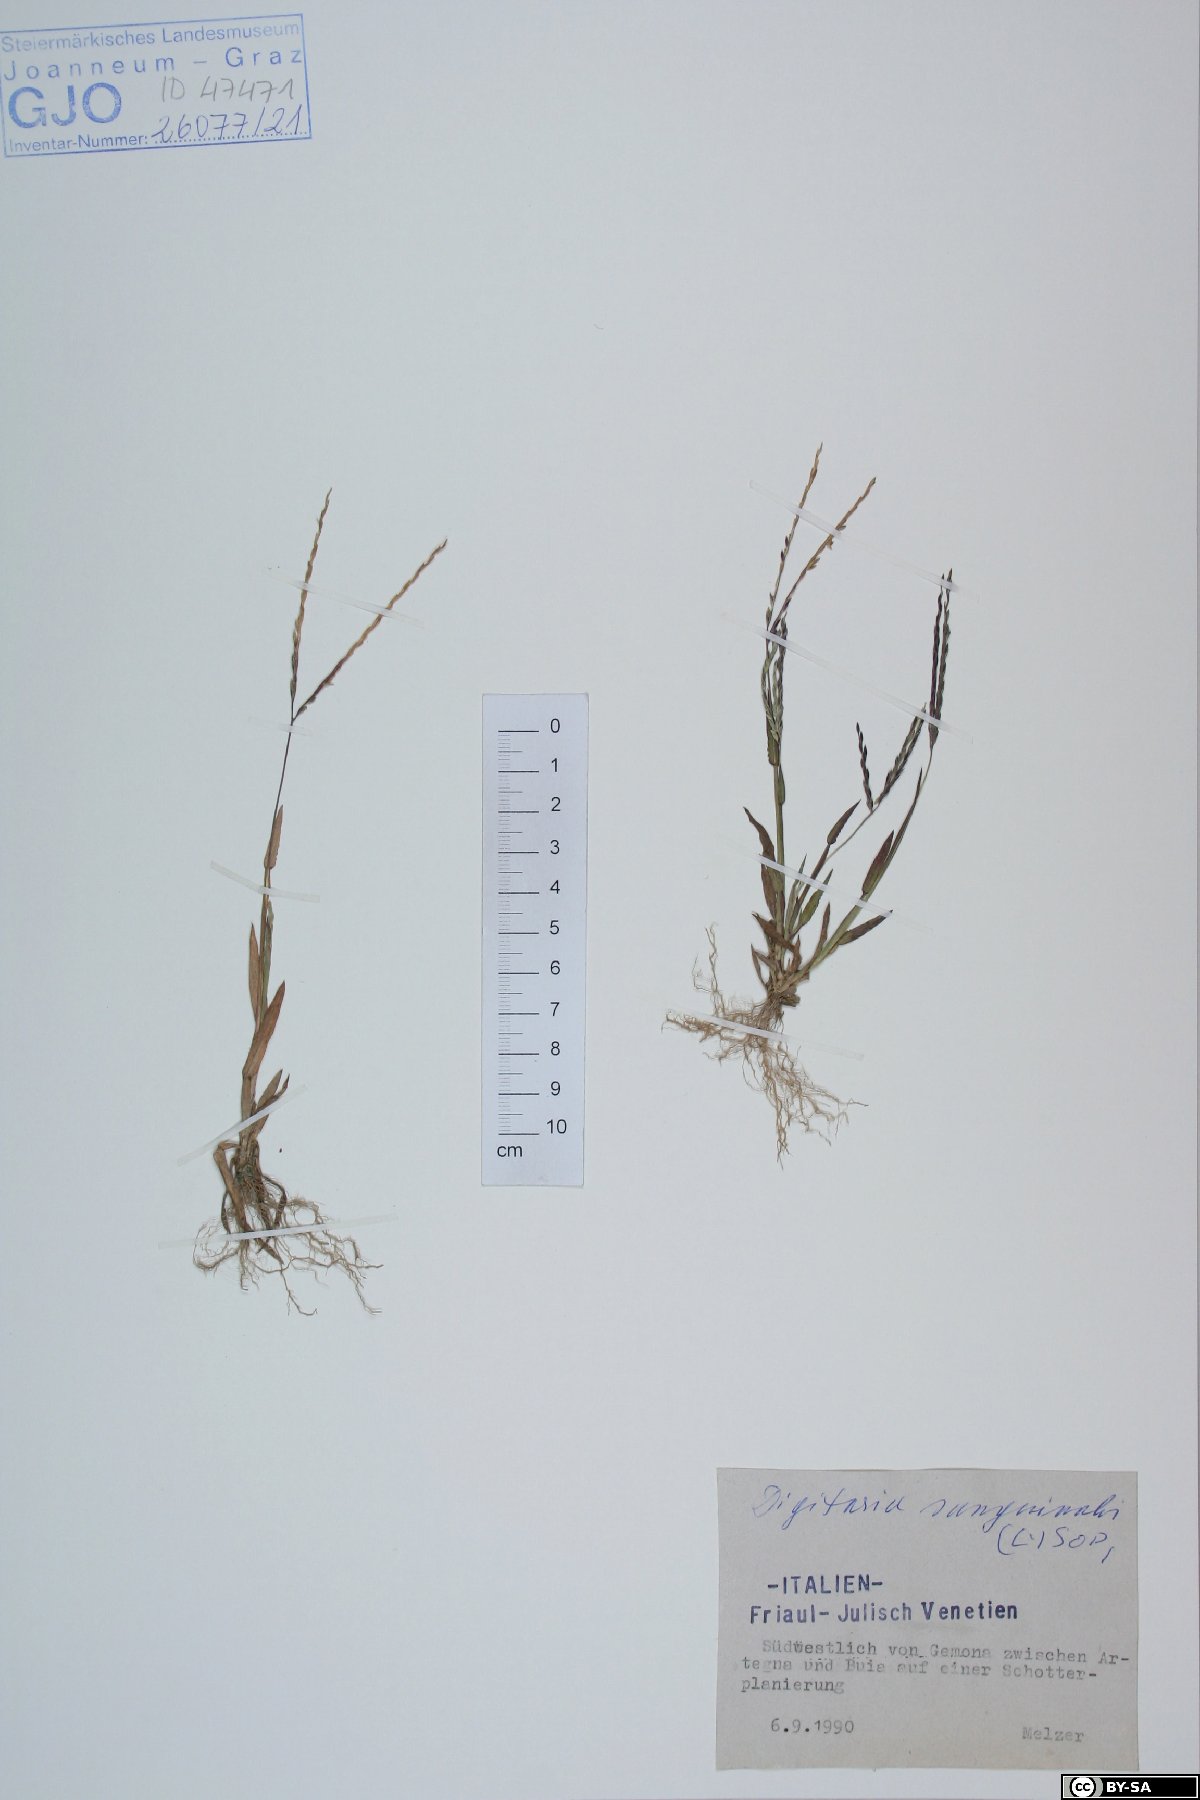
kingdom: Plantae
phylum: Tracheophyta
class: Liliopsida
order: Poales
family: Poaceae
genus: Digitaria
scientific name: Digitaria sanguinalis
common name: Hairy crabgrass
